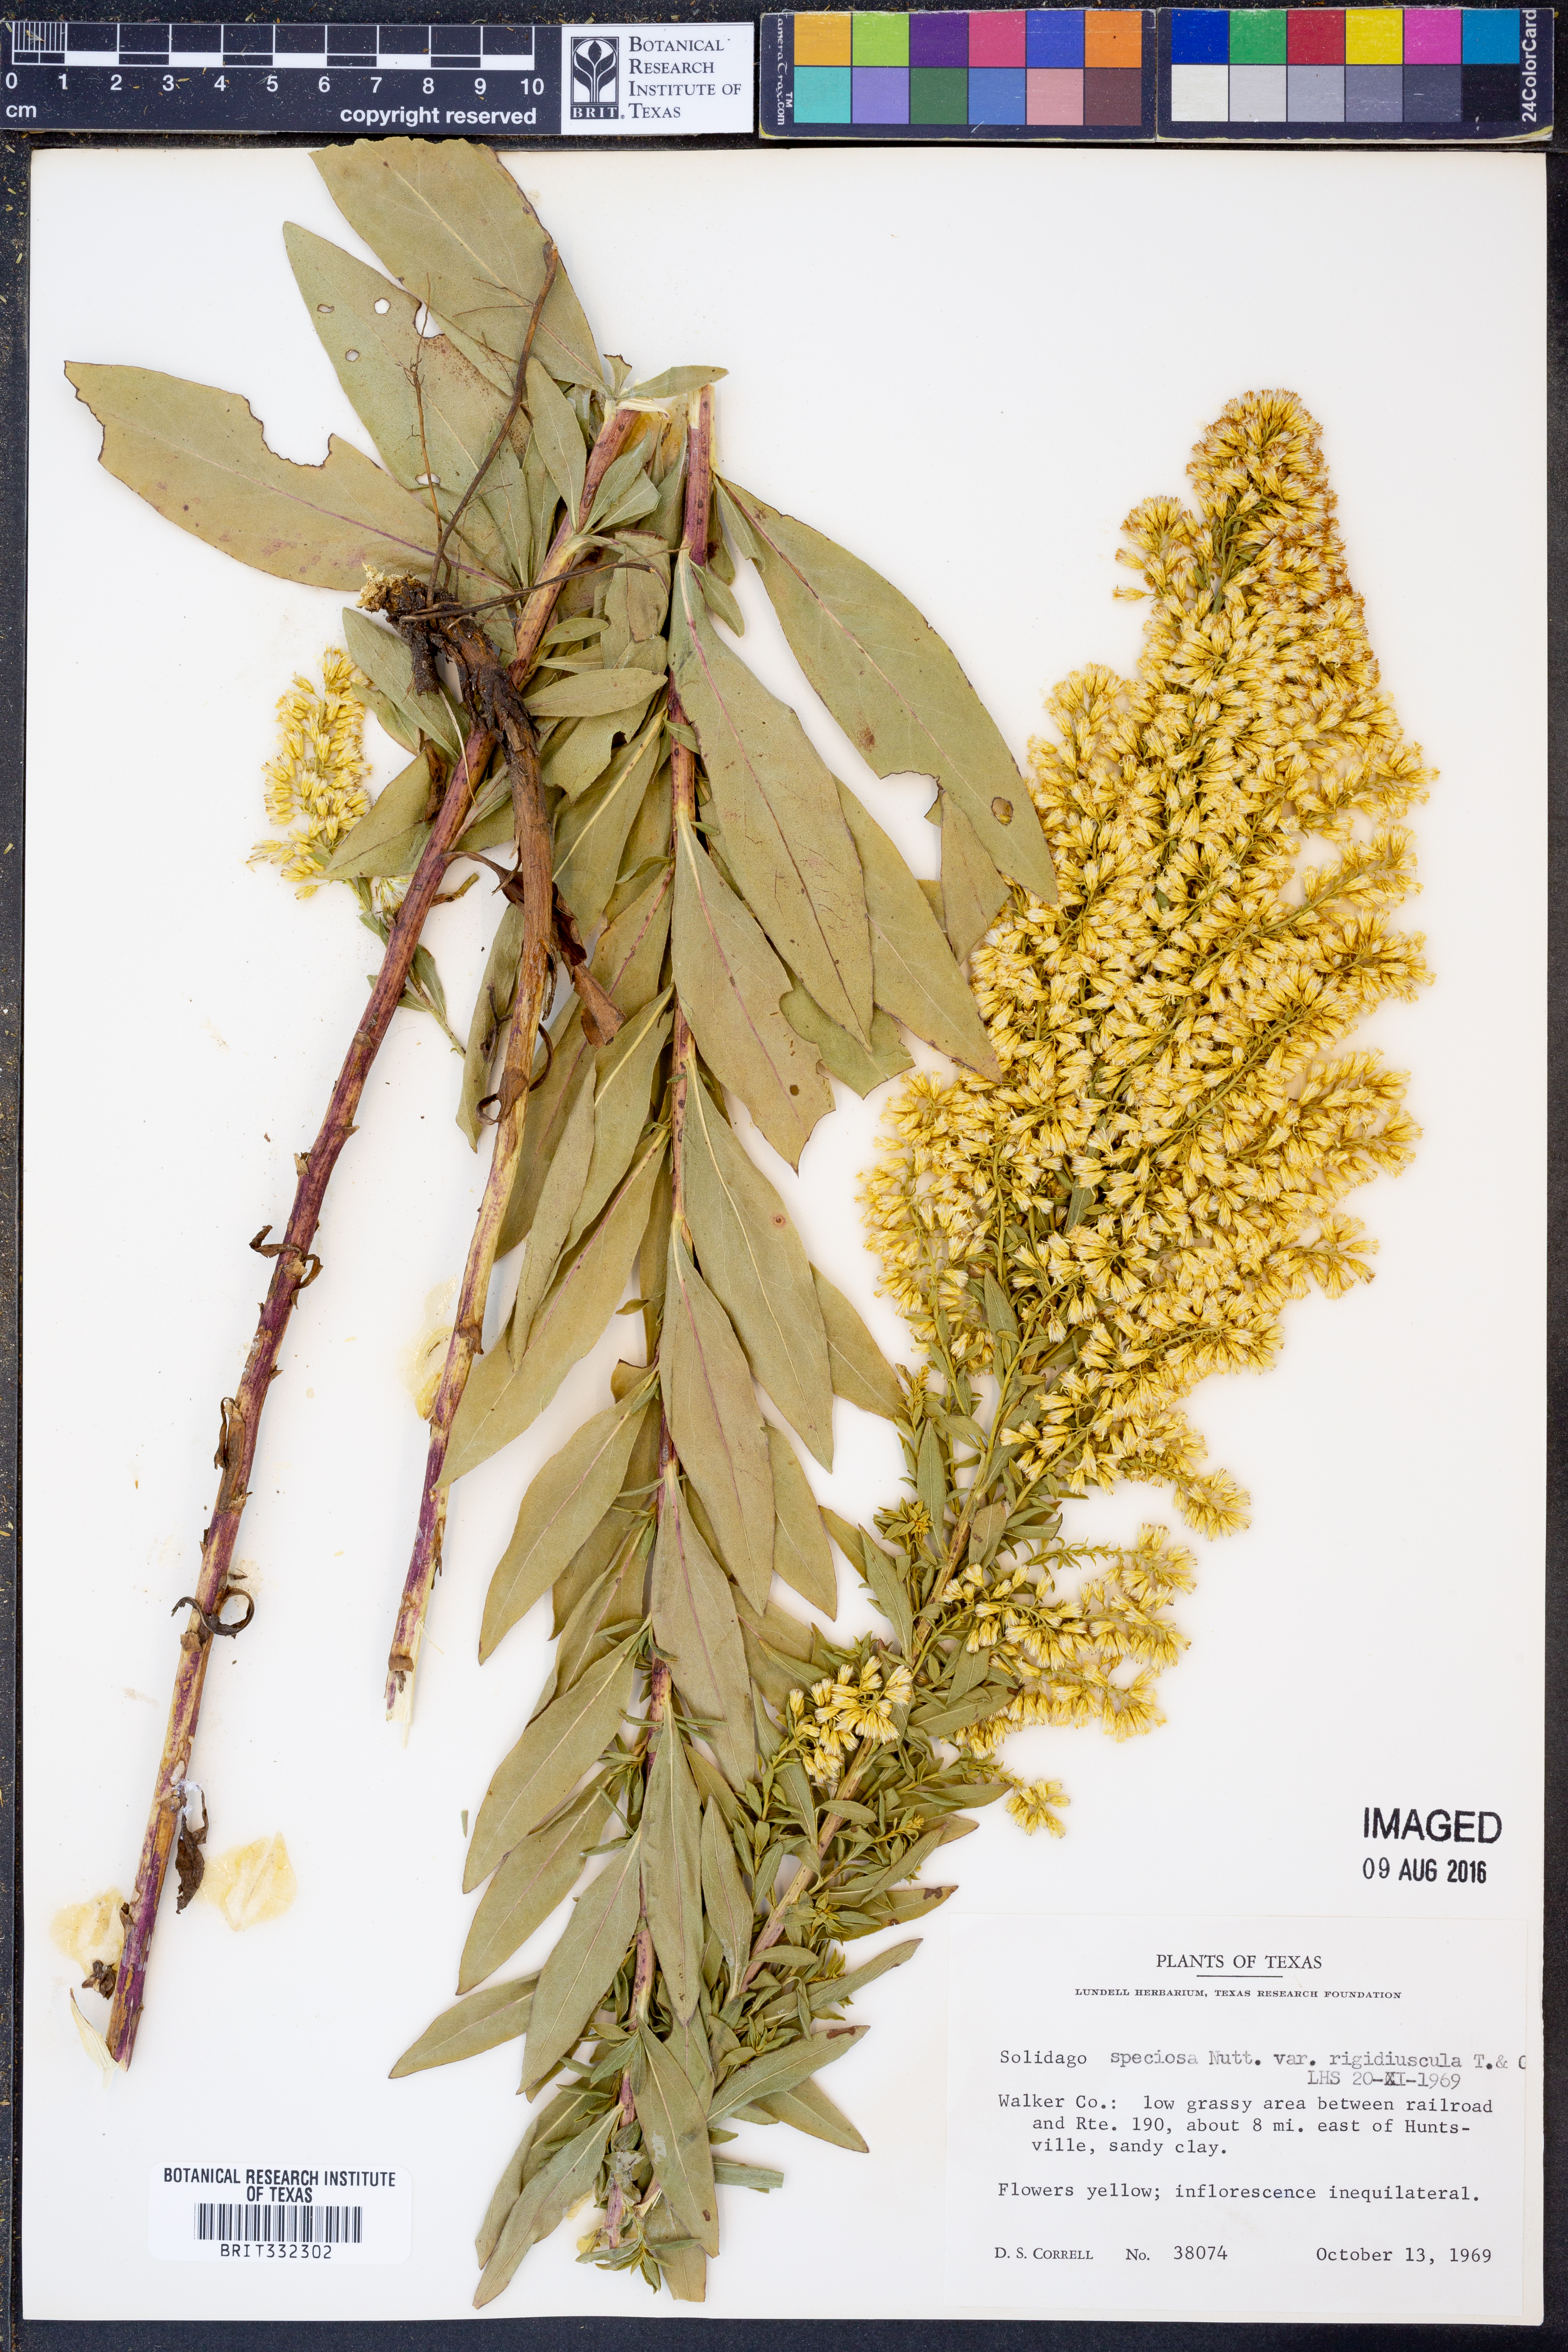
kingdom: Plantae
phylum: Tracheophyta
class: Magnoliopsida
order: Asterales
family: Asteraceae
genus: Solidago
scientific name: Solidago rigidiuscula
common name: Stiff-leaved showy goldenrod
